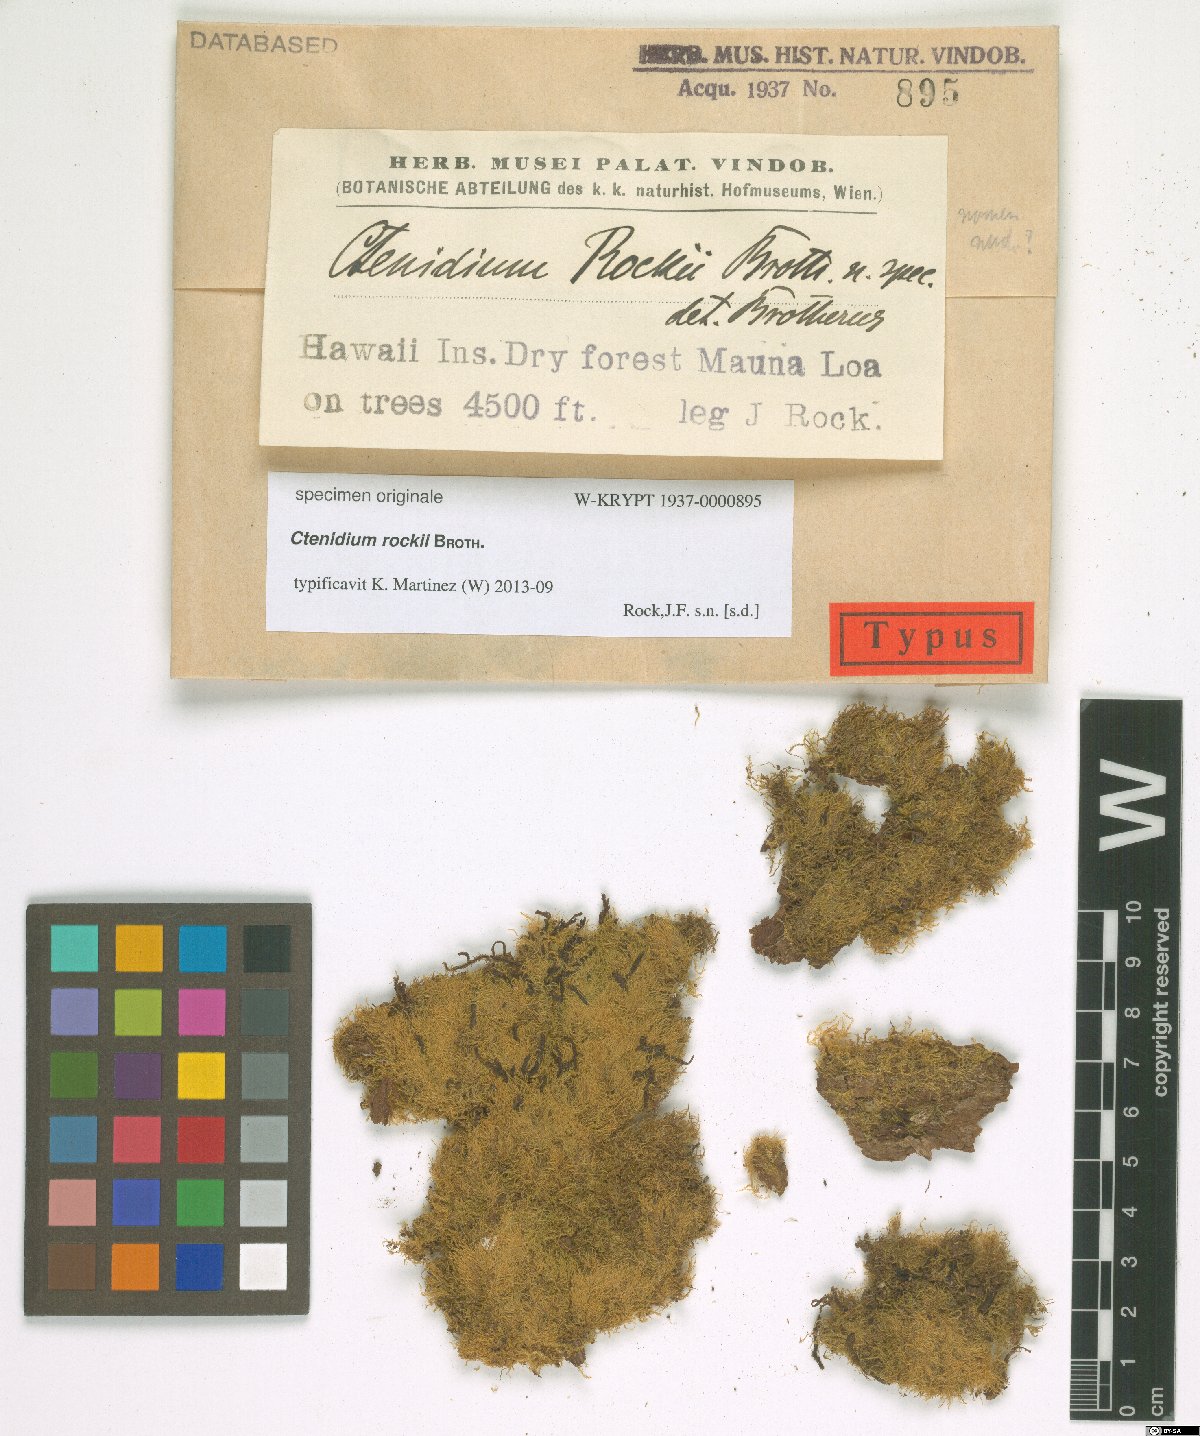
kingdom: Plantae
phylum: Tracheophyta
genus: Ctenidium
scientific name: Ctenidium
